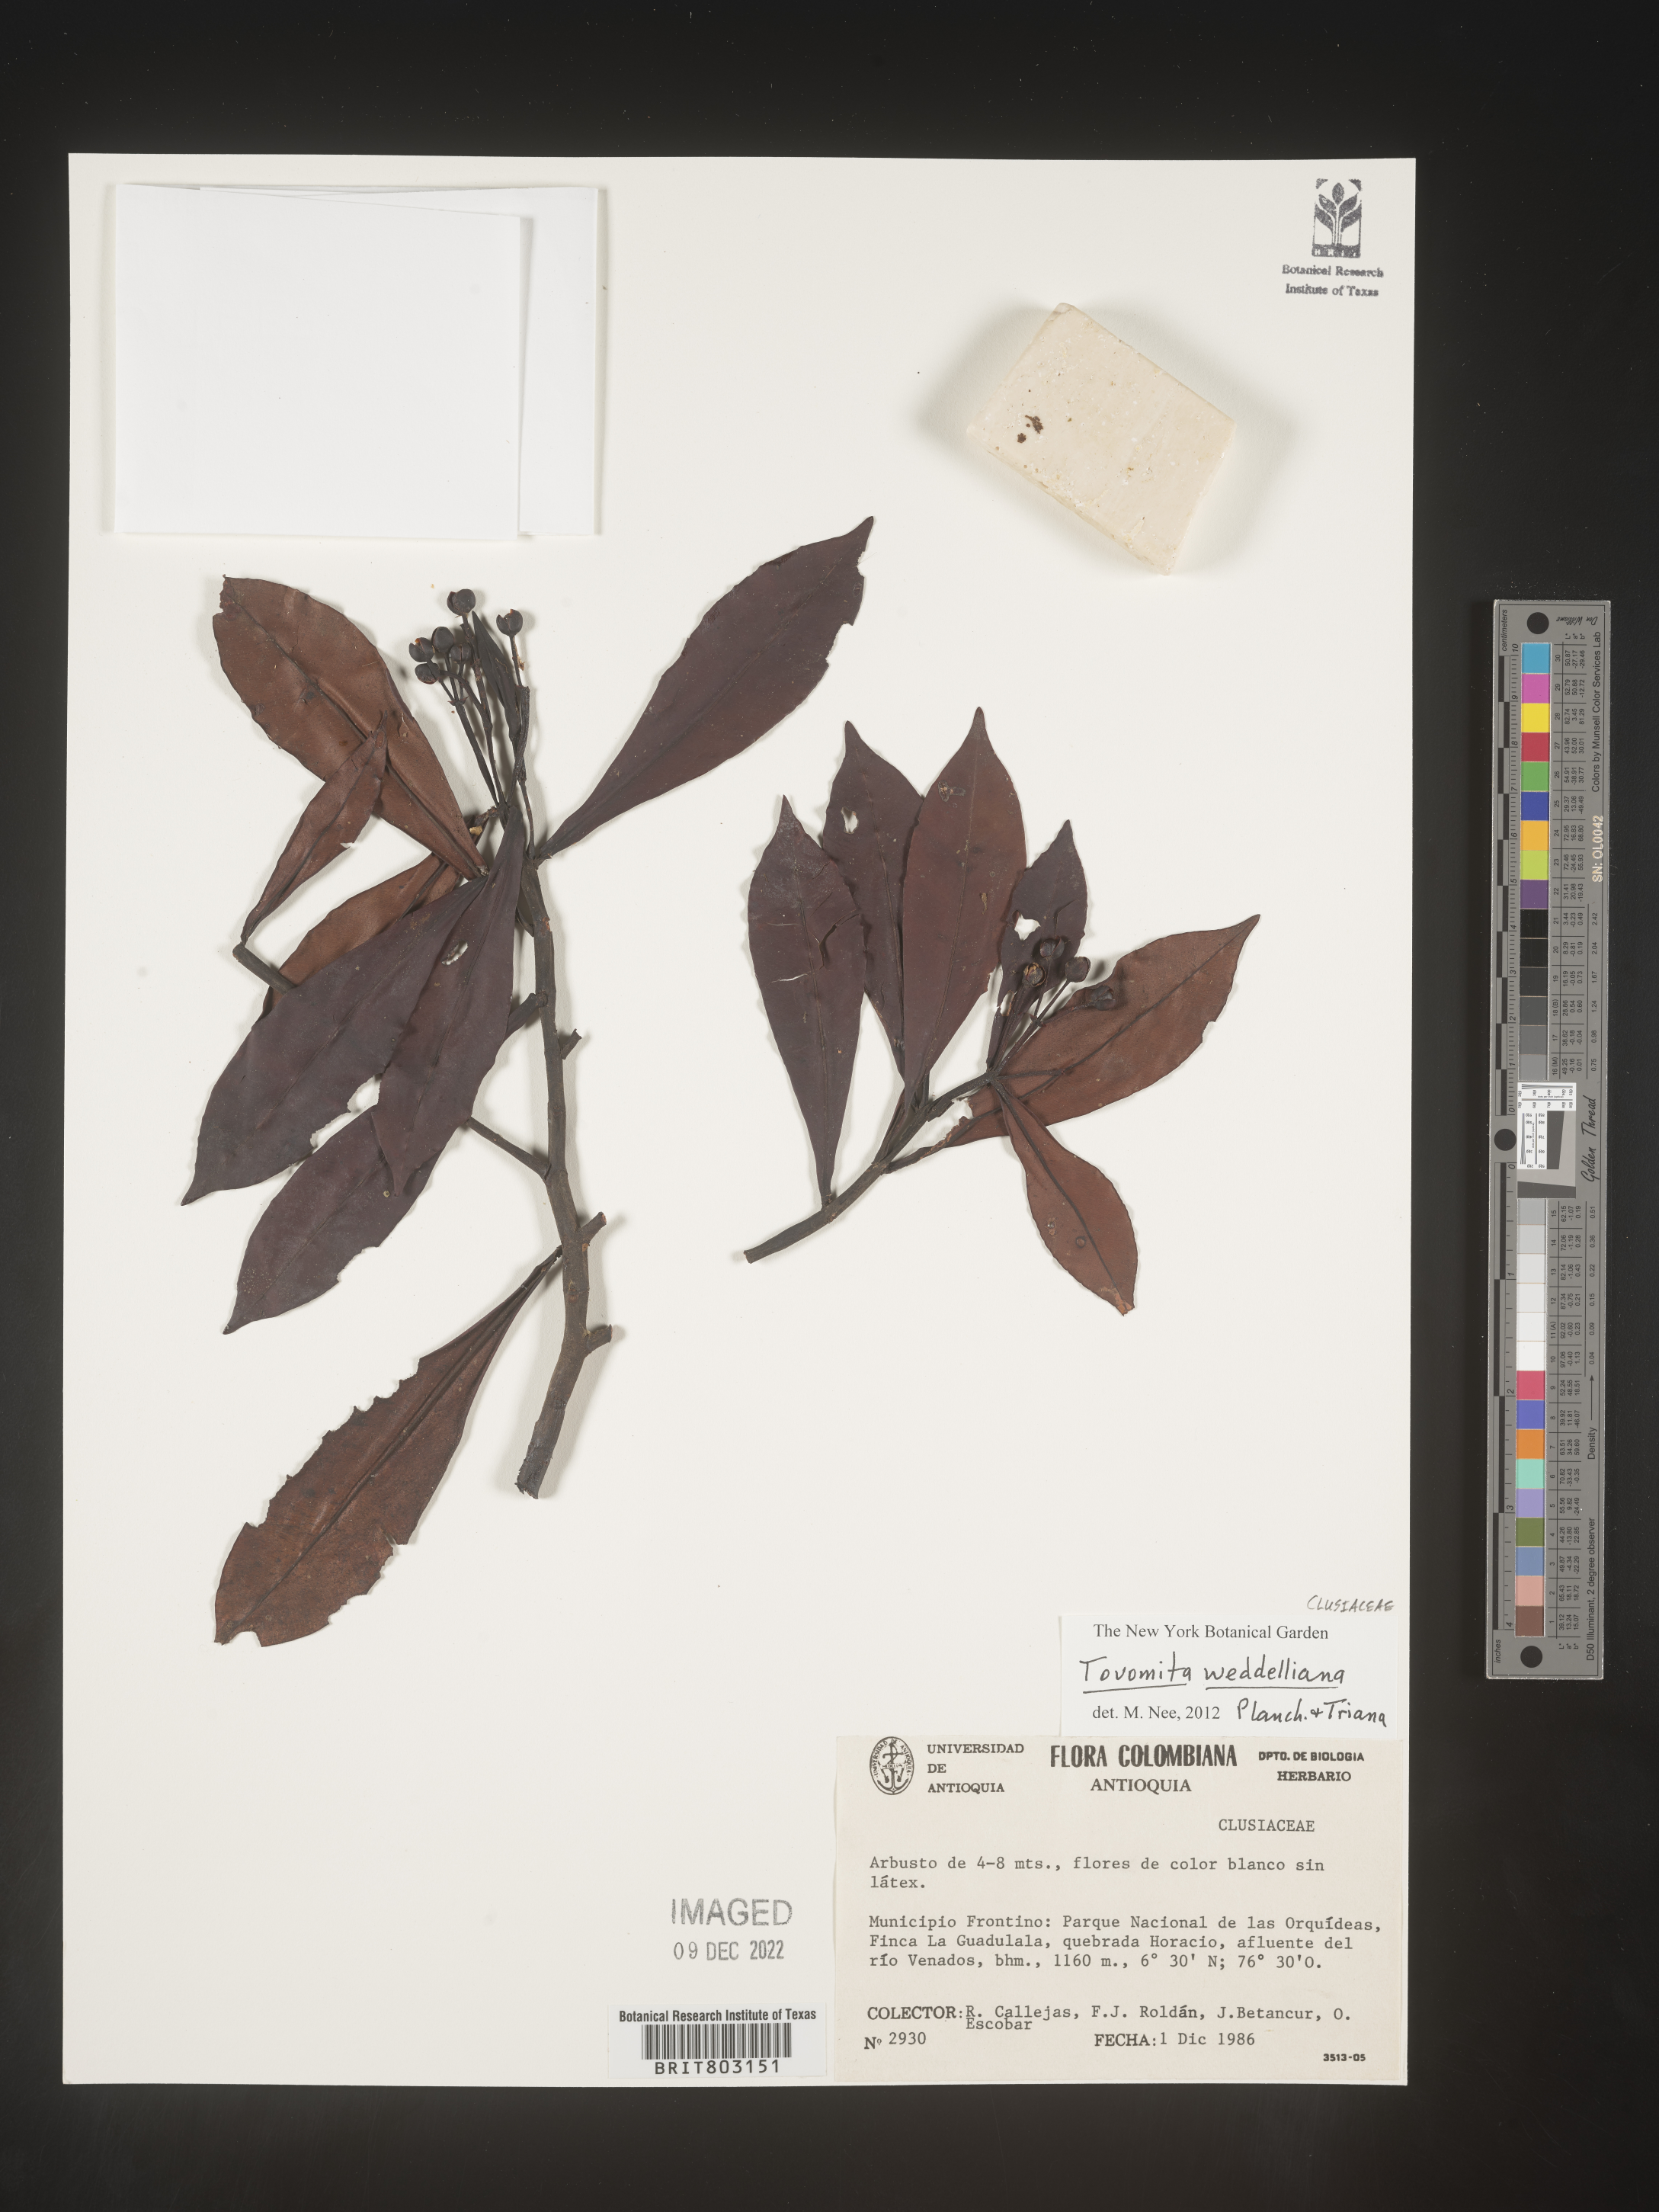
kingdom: Plantae
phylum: Tracheophyta
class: Magnoliopsida
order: Malpighiales
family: Clusiaceae
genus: Arawakia
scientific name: Arawakia weddelliana
